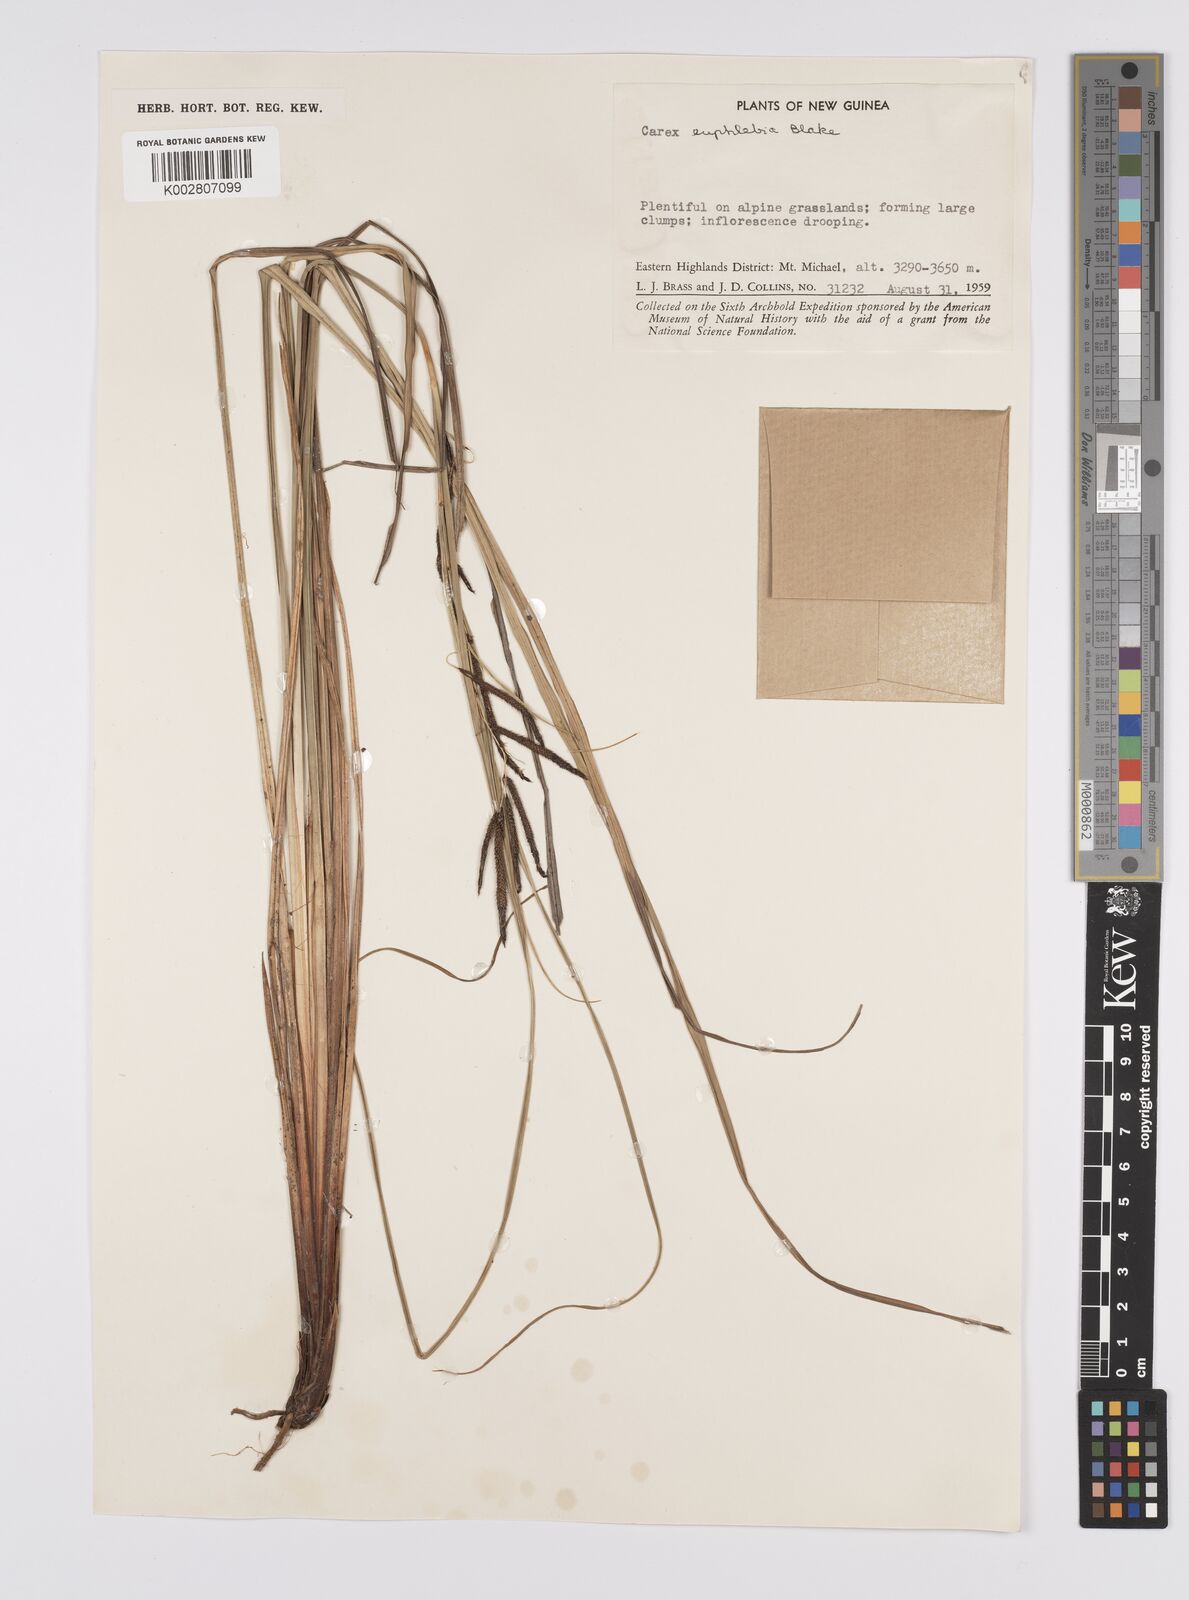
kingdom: Plantae
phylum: Tracheophyta
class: Liliopsida
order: Poales
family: Cyperaceae
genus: Carex
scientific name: Carex graeffeana
